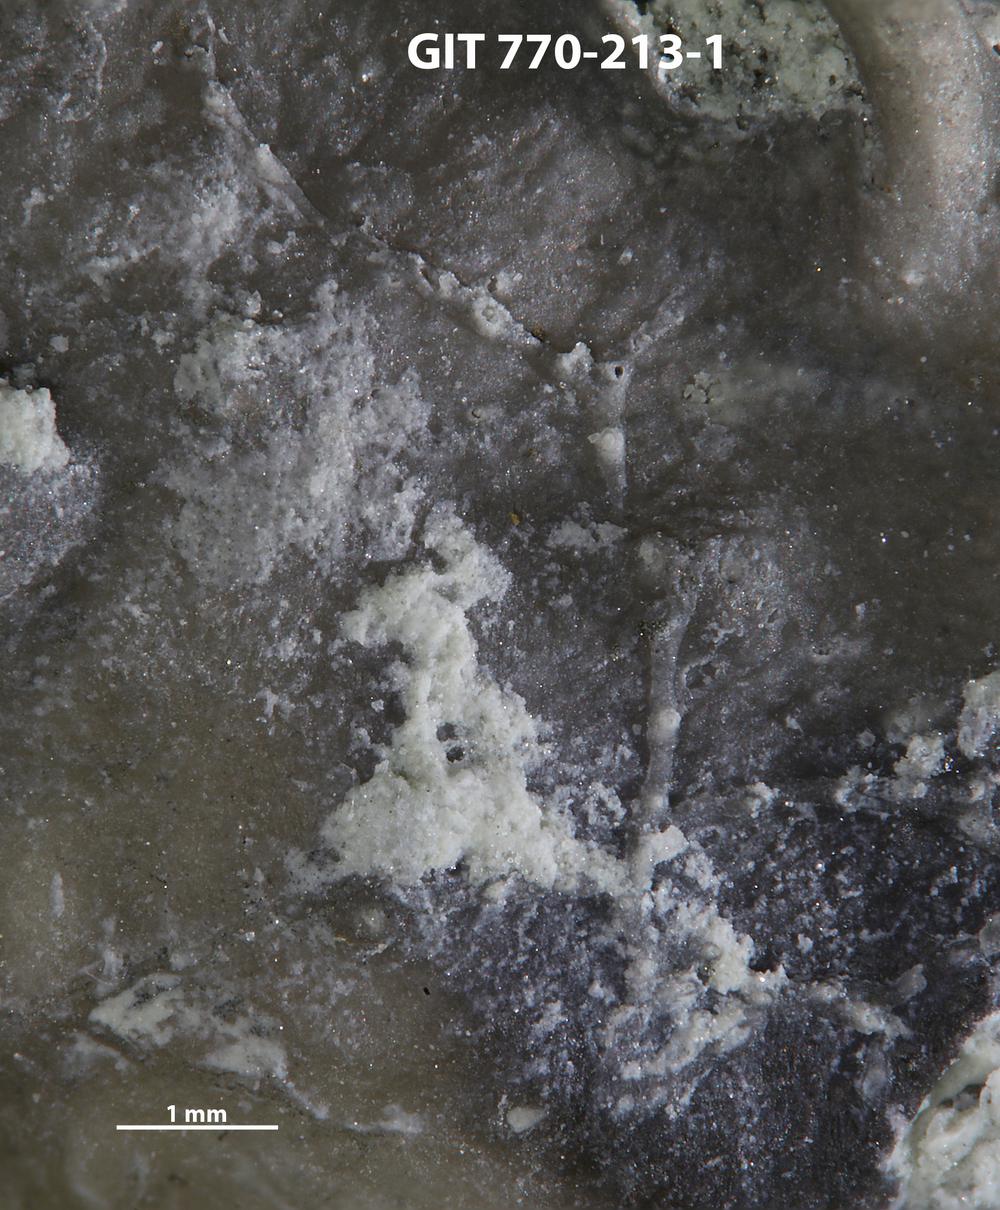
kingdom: Animalia
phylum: Bryozoa
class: Stenolaemata
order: Cyclostomatida
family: Corynotrypidae
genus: Corynotrypa
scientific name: Corynotrypa
